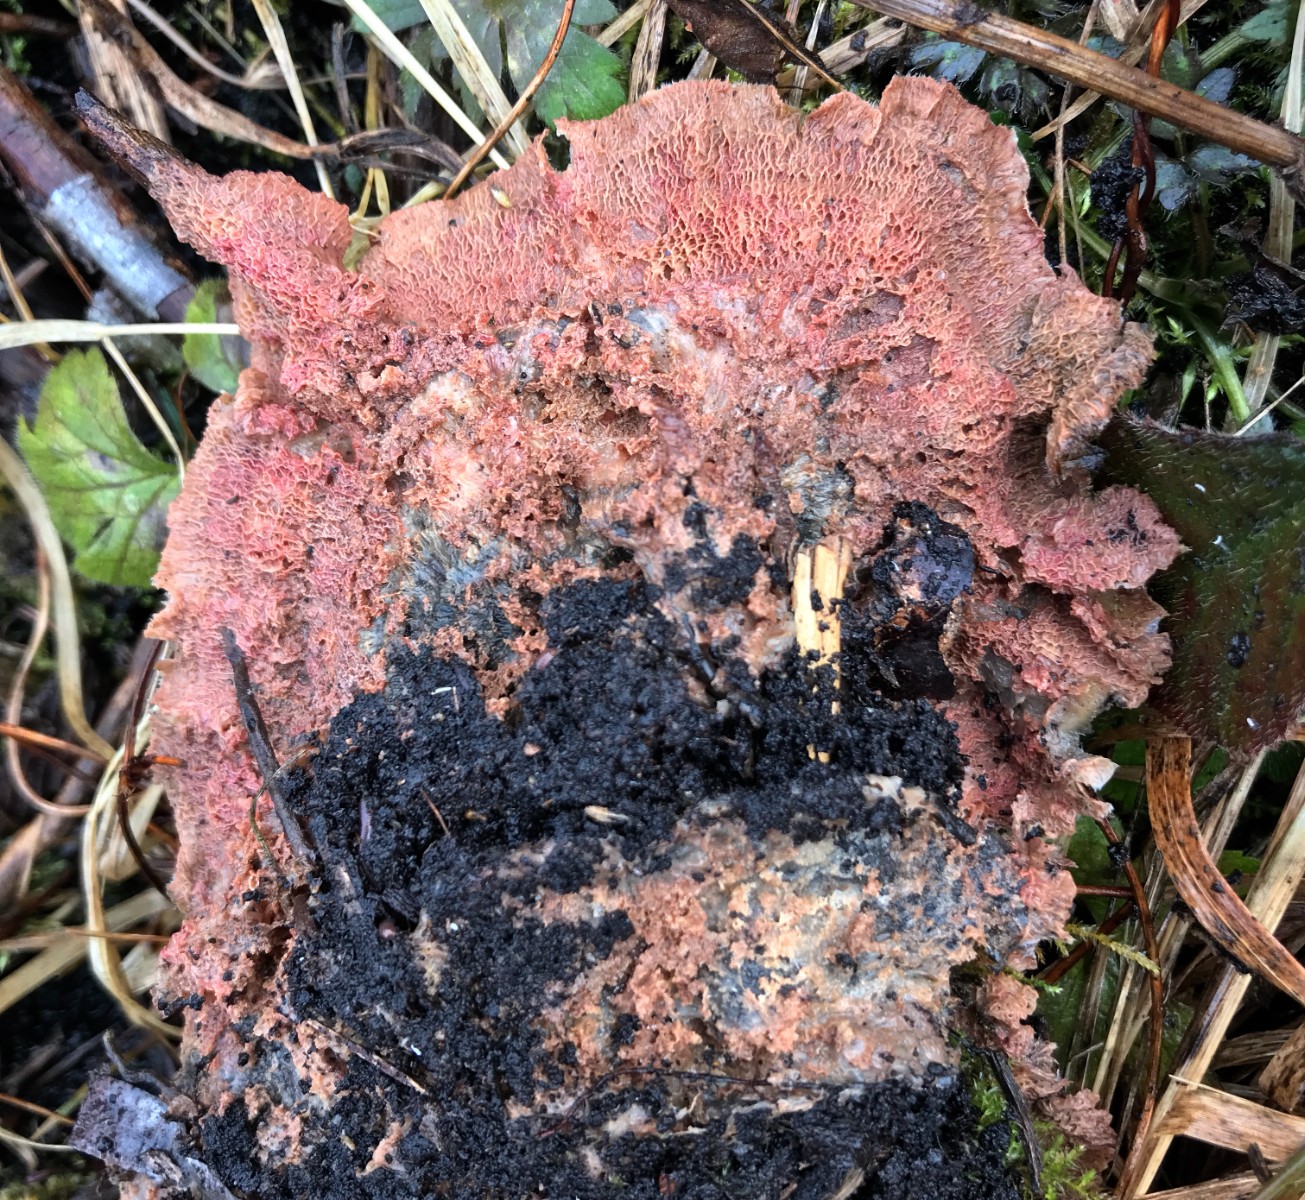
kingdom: Fungi
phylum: Basidiomycota
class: Agaricomycetes
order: Polyporales
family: Meruliaceae
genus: Phlebia
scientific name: Phlebia tremellosa
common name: bævrende åresvamp
